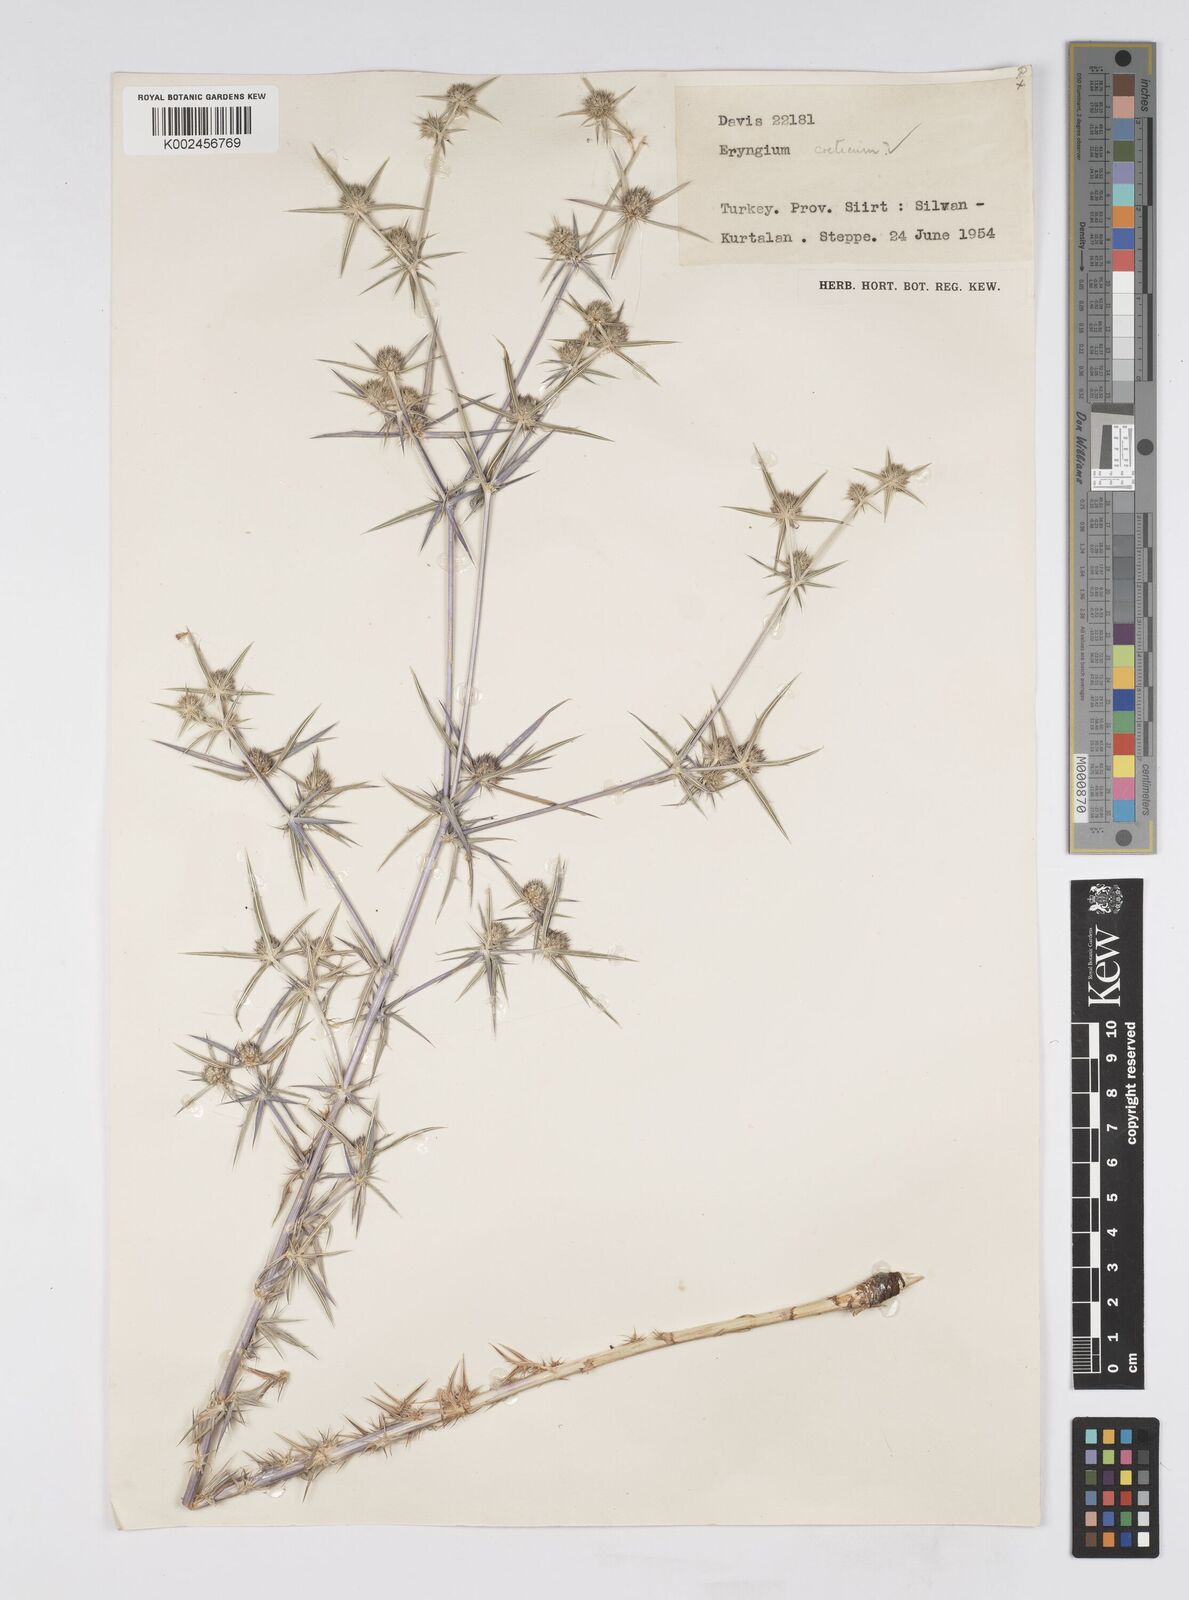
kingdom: Plantae
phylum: Tracheophyta
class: Magnoliopsida
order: Apiales
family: Apiaceae
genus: Eryngium
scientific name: Eryngium creticum
